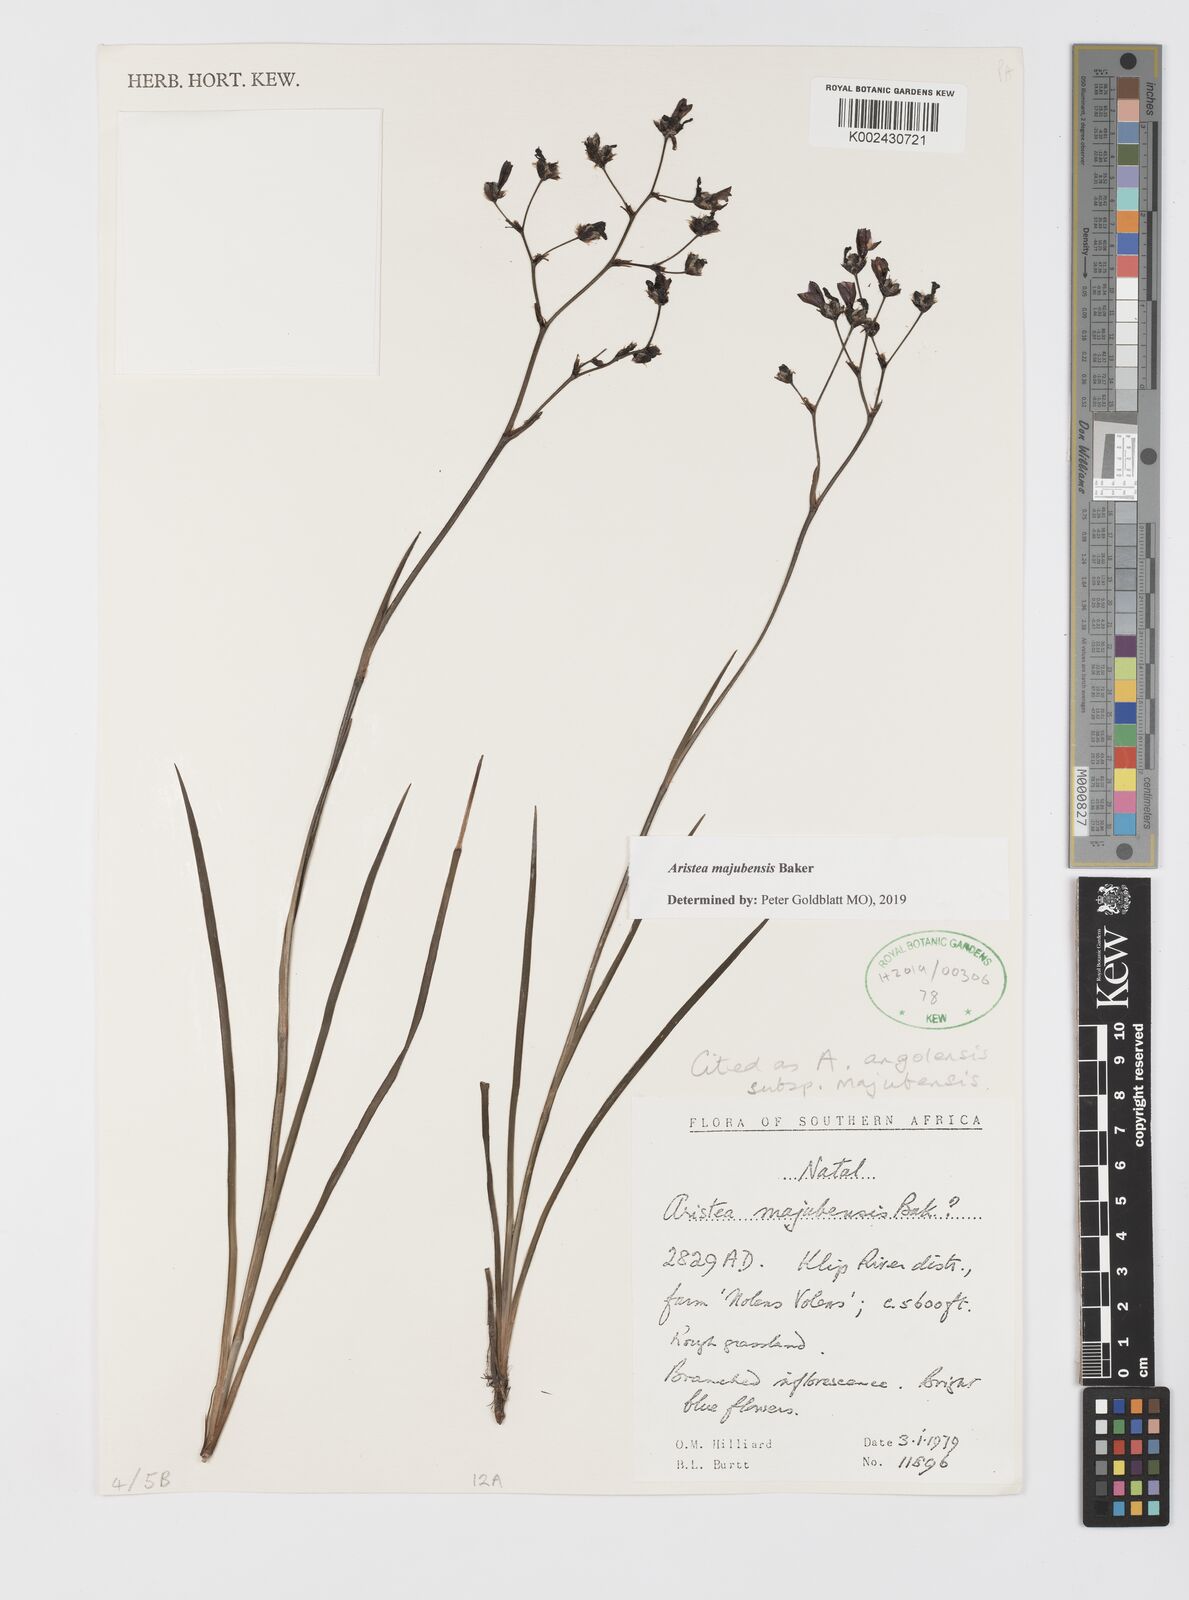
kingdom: Plantae
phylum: Tracheophyta
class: Liliopsida
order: Asparagales
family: Iridaceae
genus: Aristea
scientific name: Aristea majubensis
